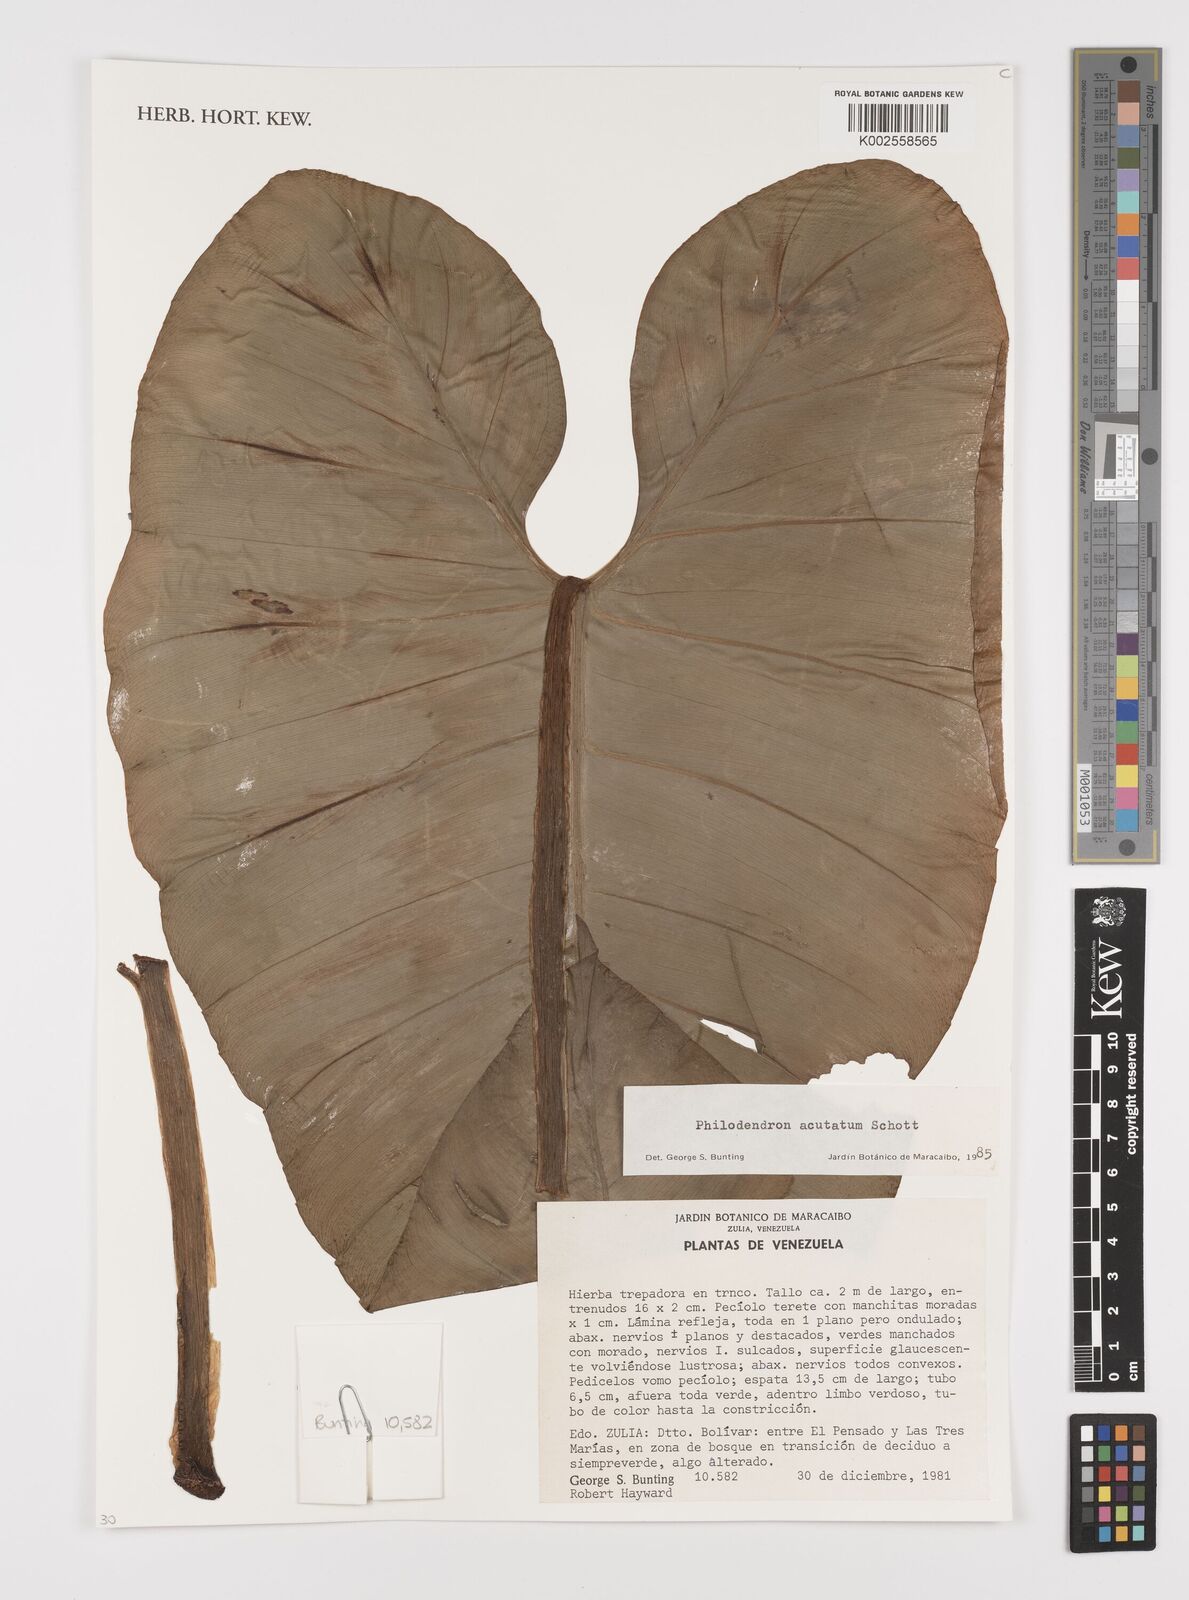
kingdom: Plantae
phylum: Tracheophyta
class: Liliopsida
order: Alismatales
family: Araceae
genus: Philodendron
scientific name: Philodendron quinquenervium
